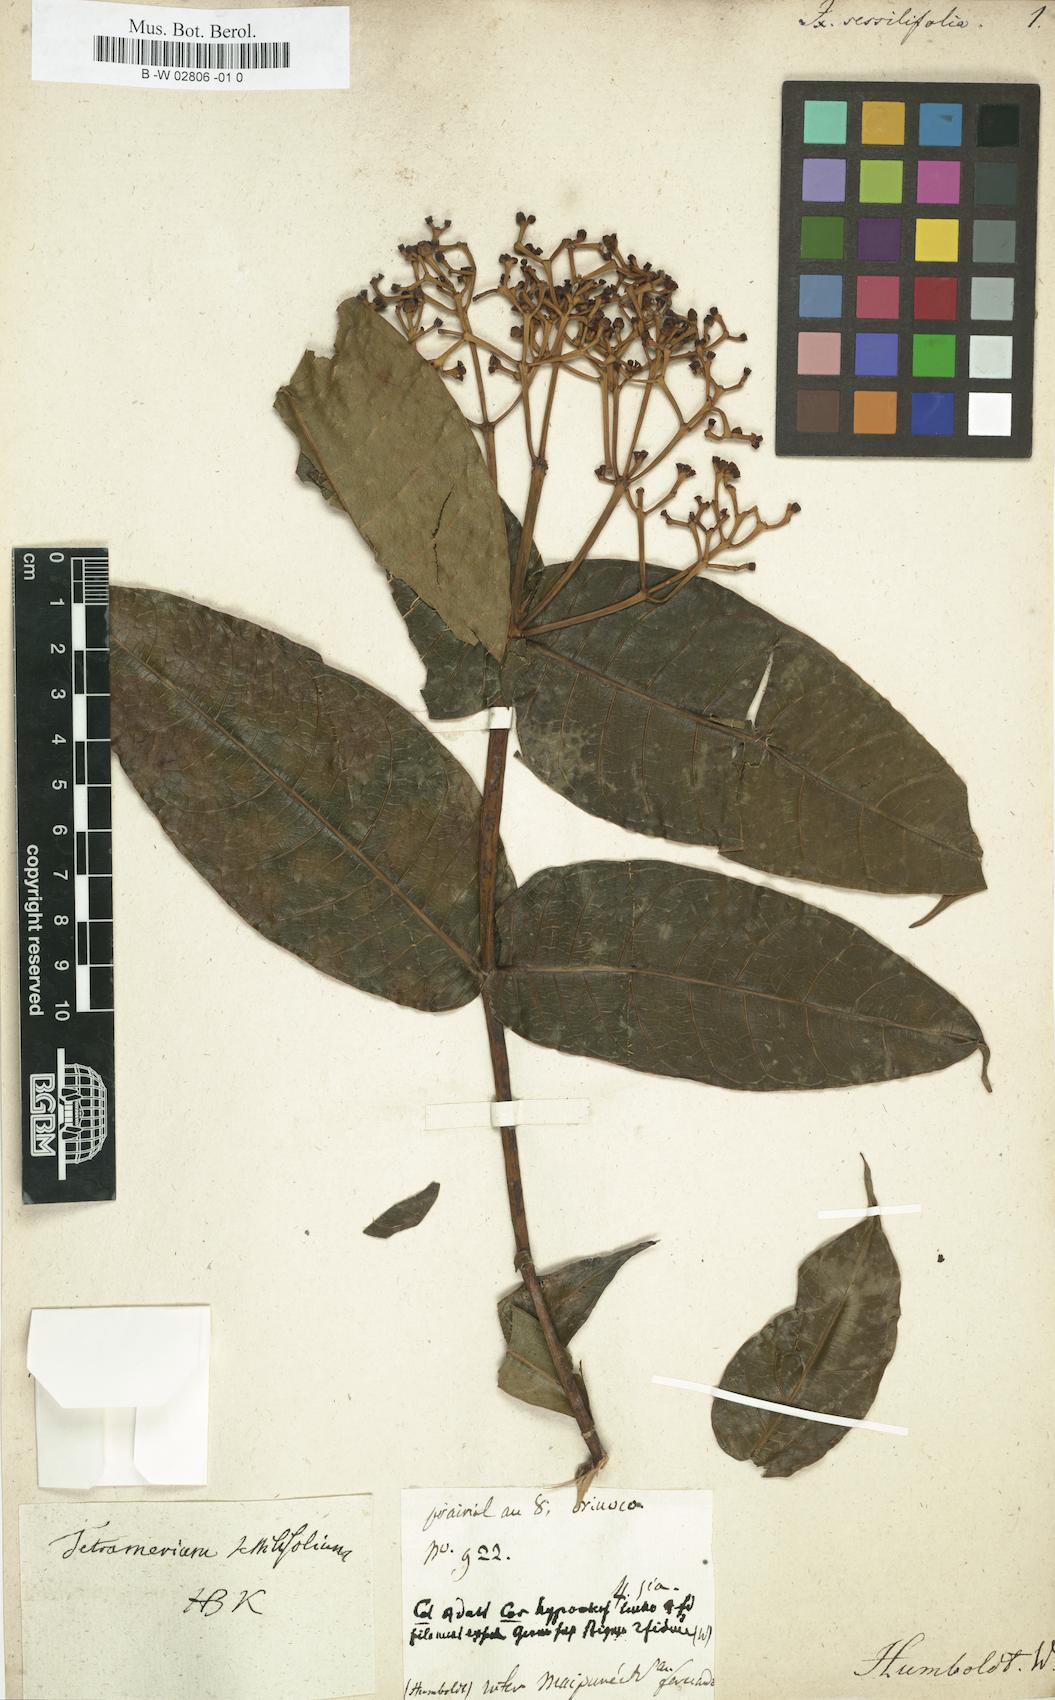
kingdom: Plantae
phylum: Tracheophyta
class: Magnoliopsida
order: Gentianales
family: Rubiaceae
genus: Faramea
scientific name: Faramea sessilifolia
